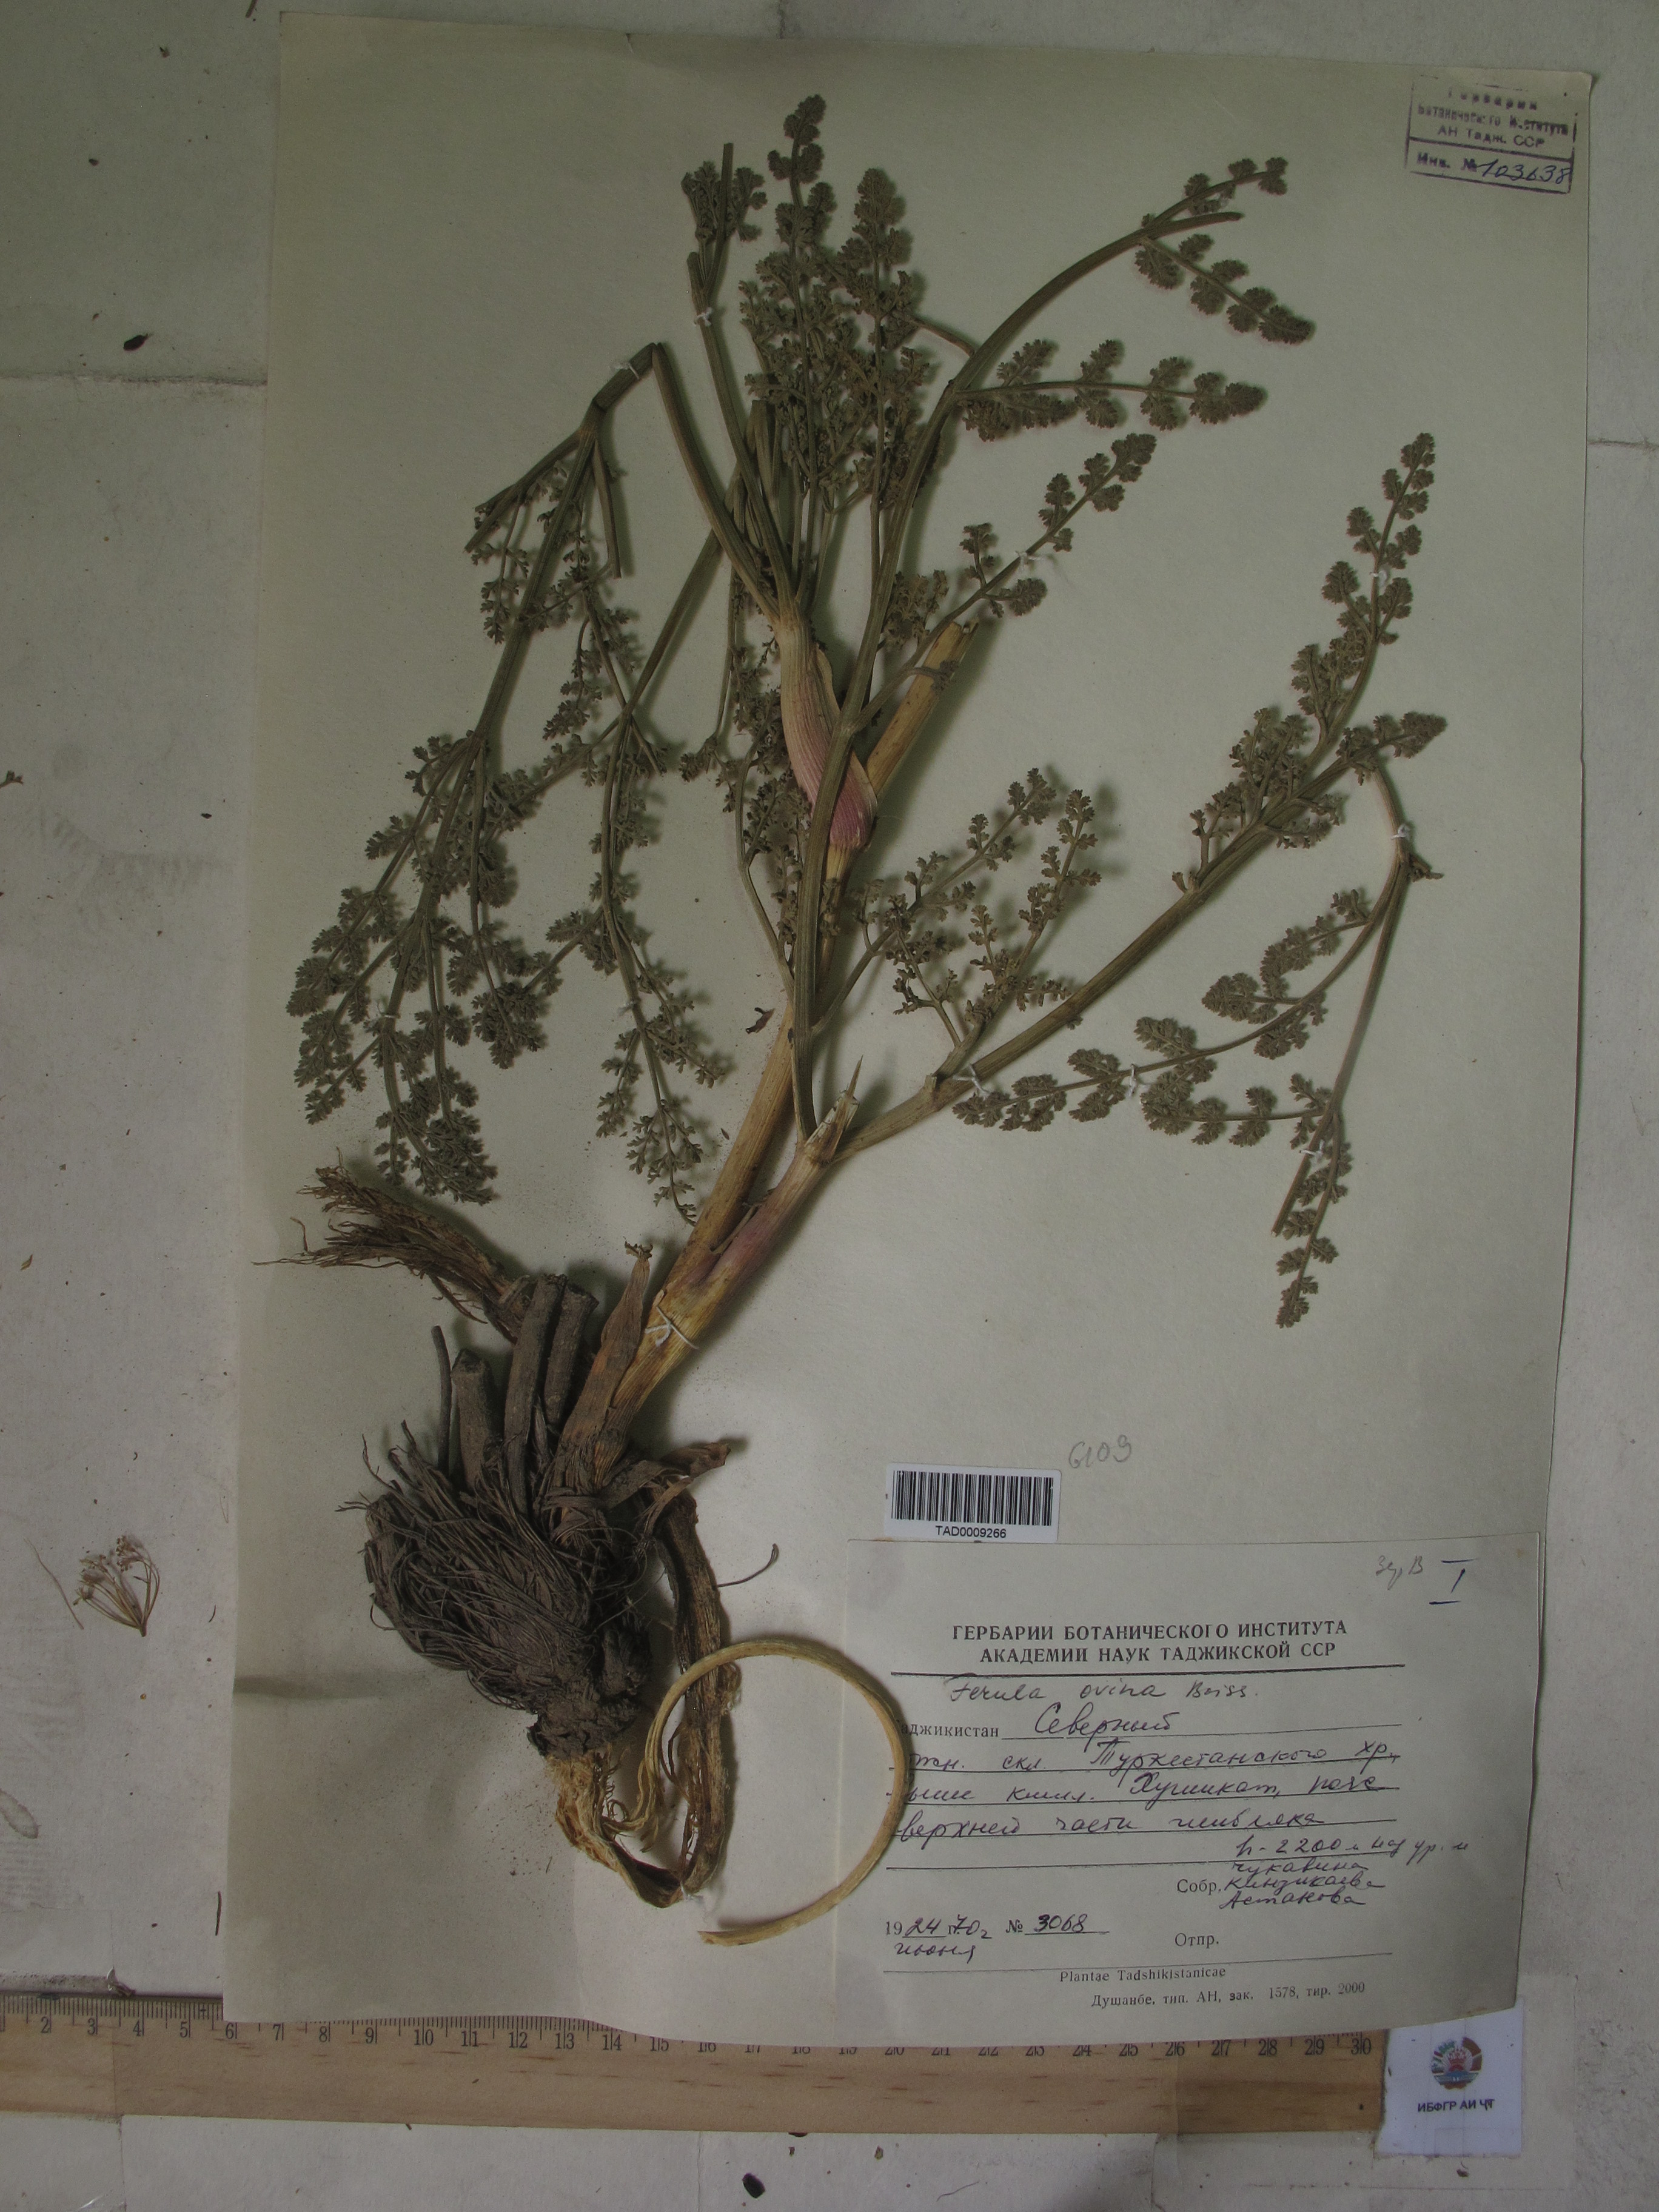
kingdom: Plantae
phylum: Tracheophyta
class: Magnoliopsida
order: Apiales
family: Apiaceae
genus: Ferula
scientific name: Ferula ovina
